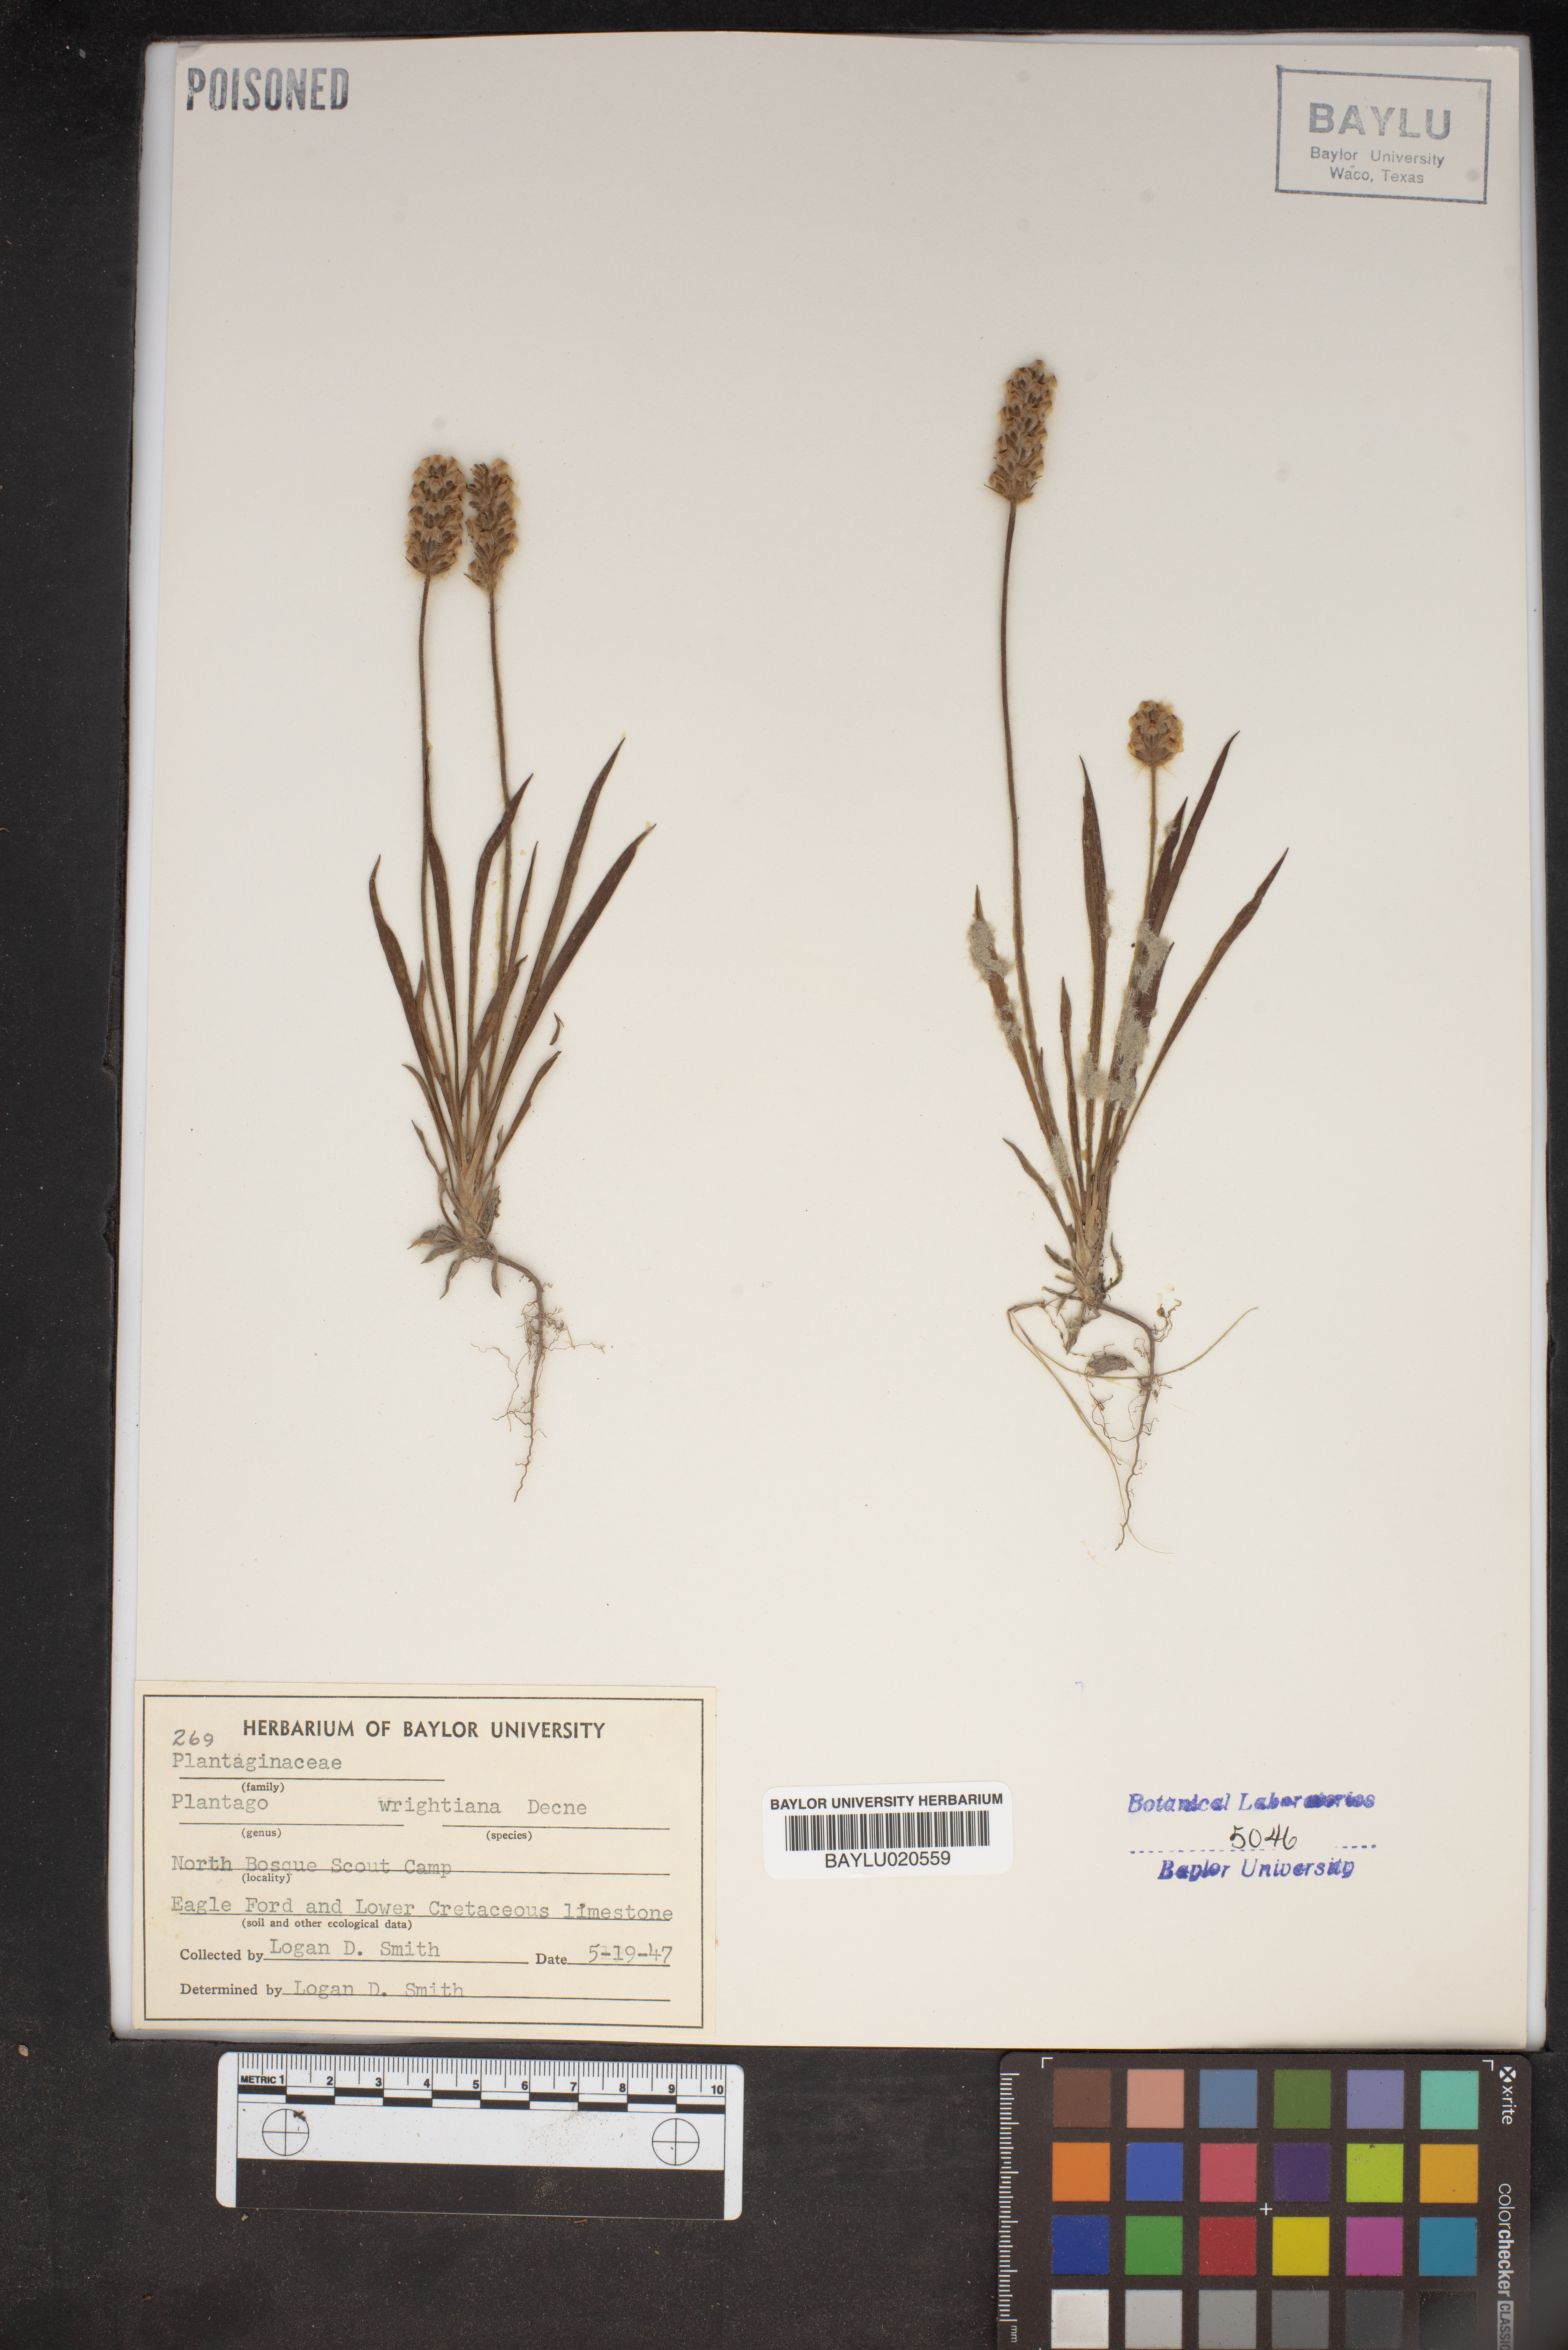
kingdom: Plantae
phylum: Tracheophyta
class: Magnoliopsida
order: Lamiales
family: Plantaginaceae
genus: Plantago
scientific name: Plantago wrightiana
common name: Wright's plantain
